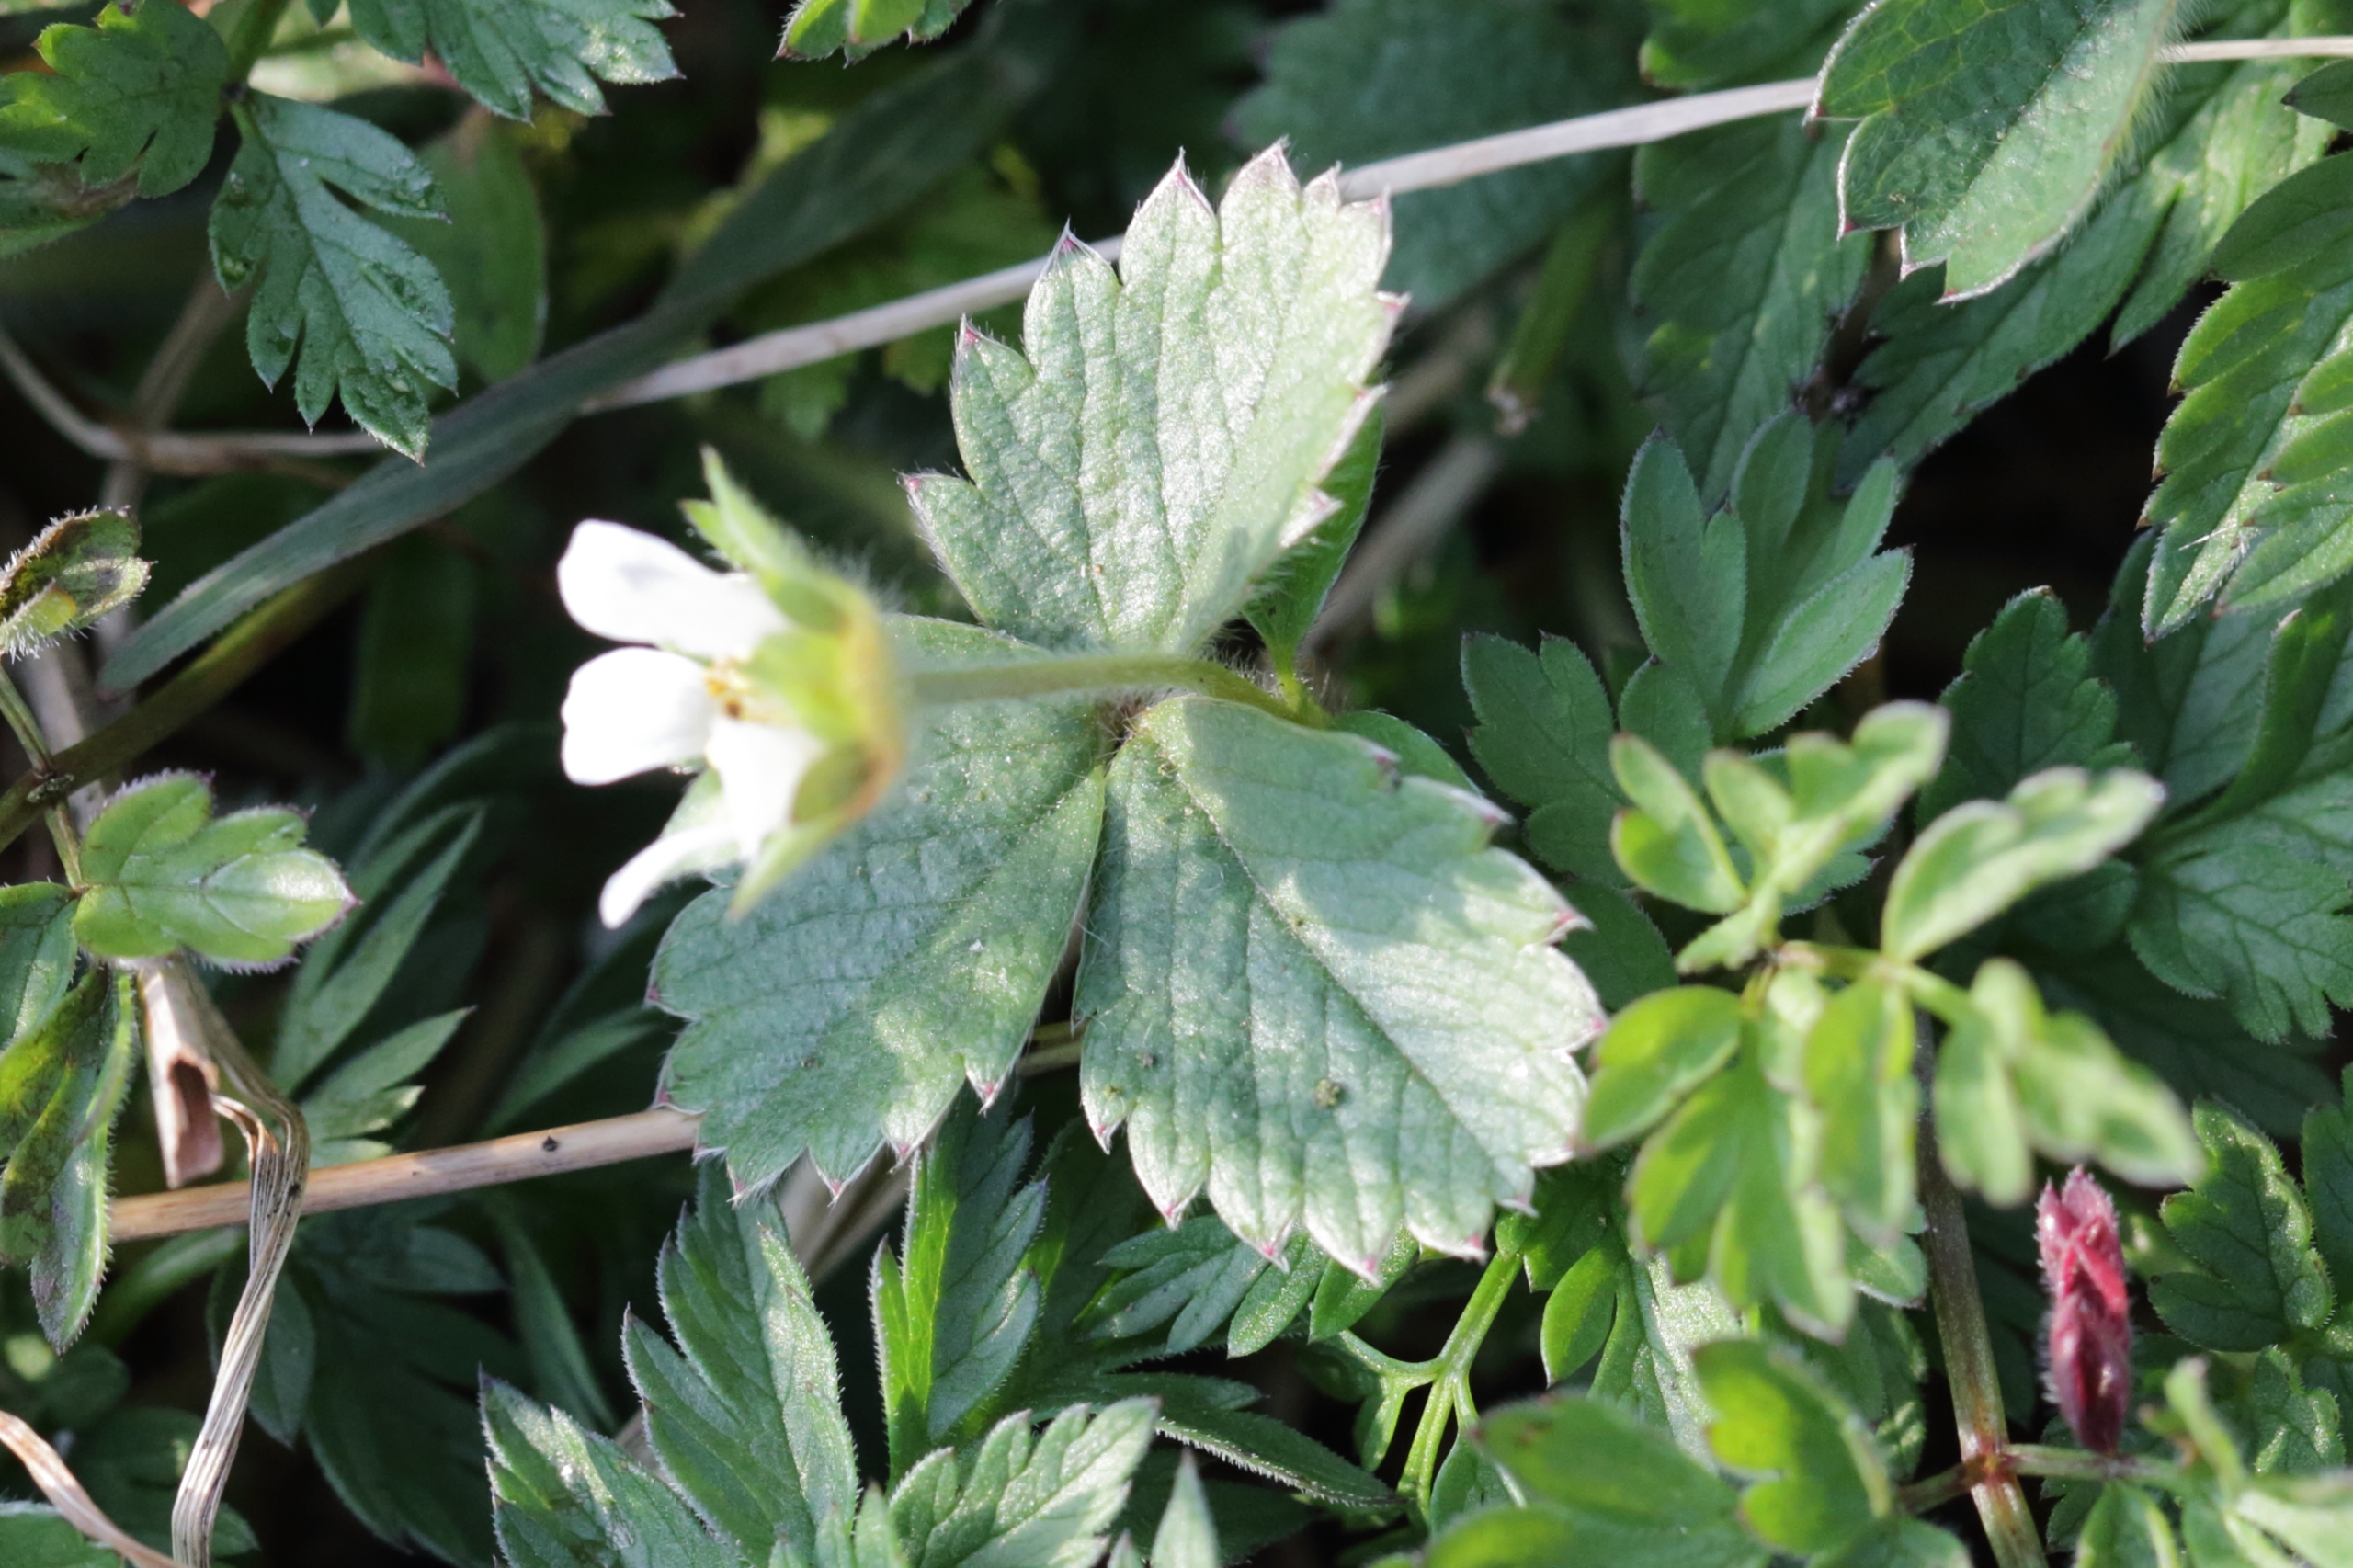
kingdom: Plantae
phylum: Tracheophyta
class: Magnoliopsida
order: Rosales
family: Rosaceae
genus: Potentilla
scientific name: Potentilla sterilis
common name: Jordbær-potentil
